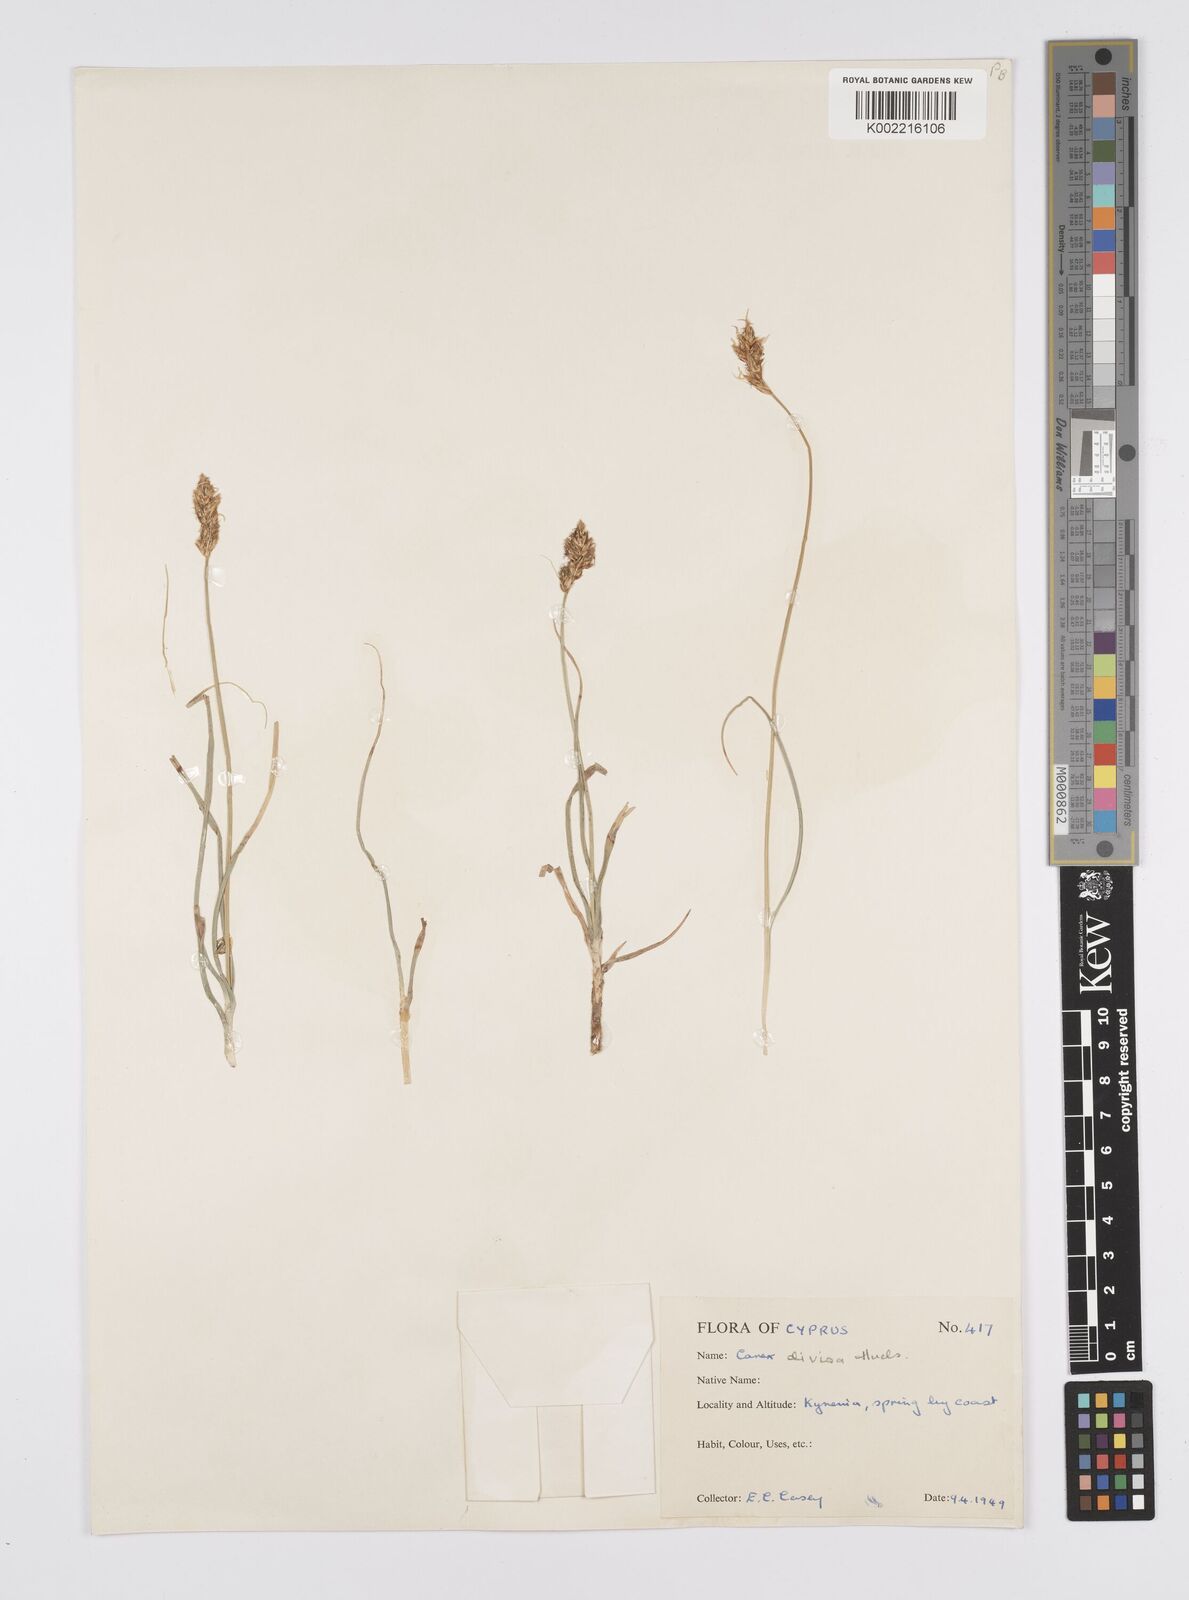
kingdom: Plantae
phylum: Tracheophyta
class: Liliopsida
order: Poales
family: Cyperaceae
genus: Carex
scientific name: Carex divisa
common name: Divided sedge
